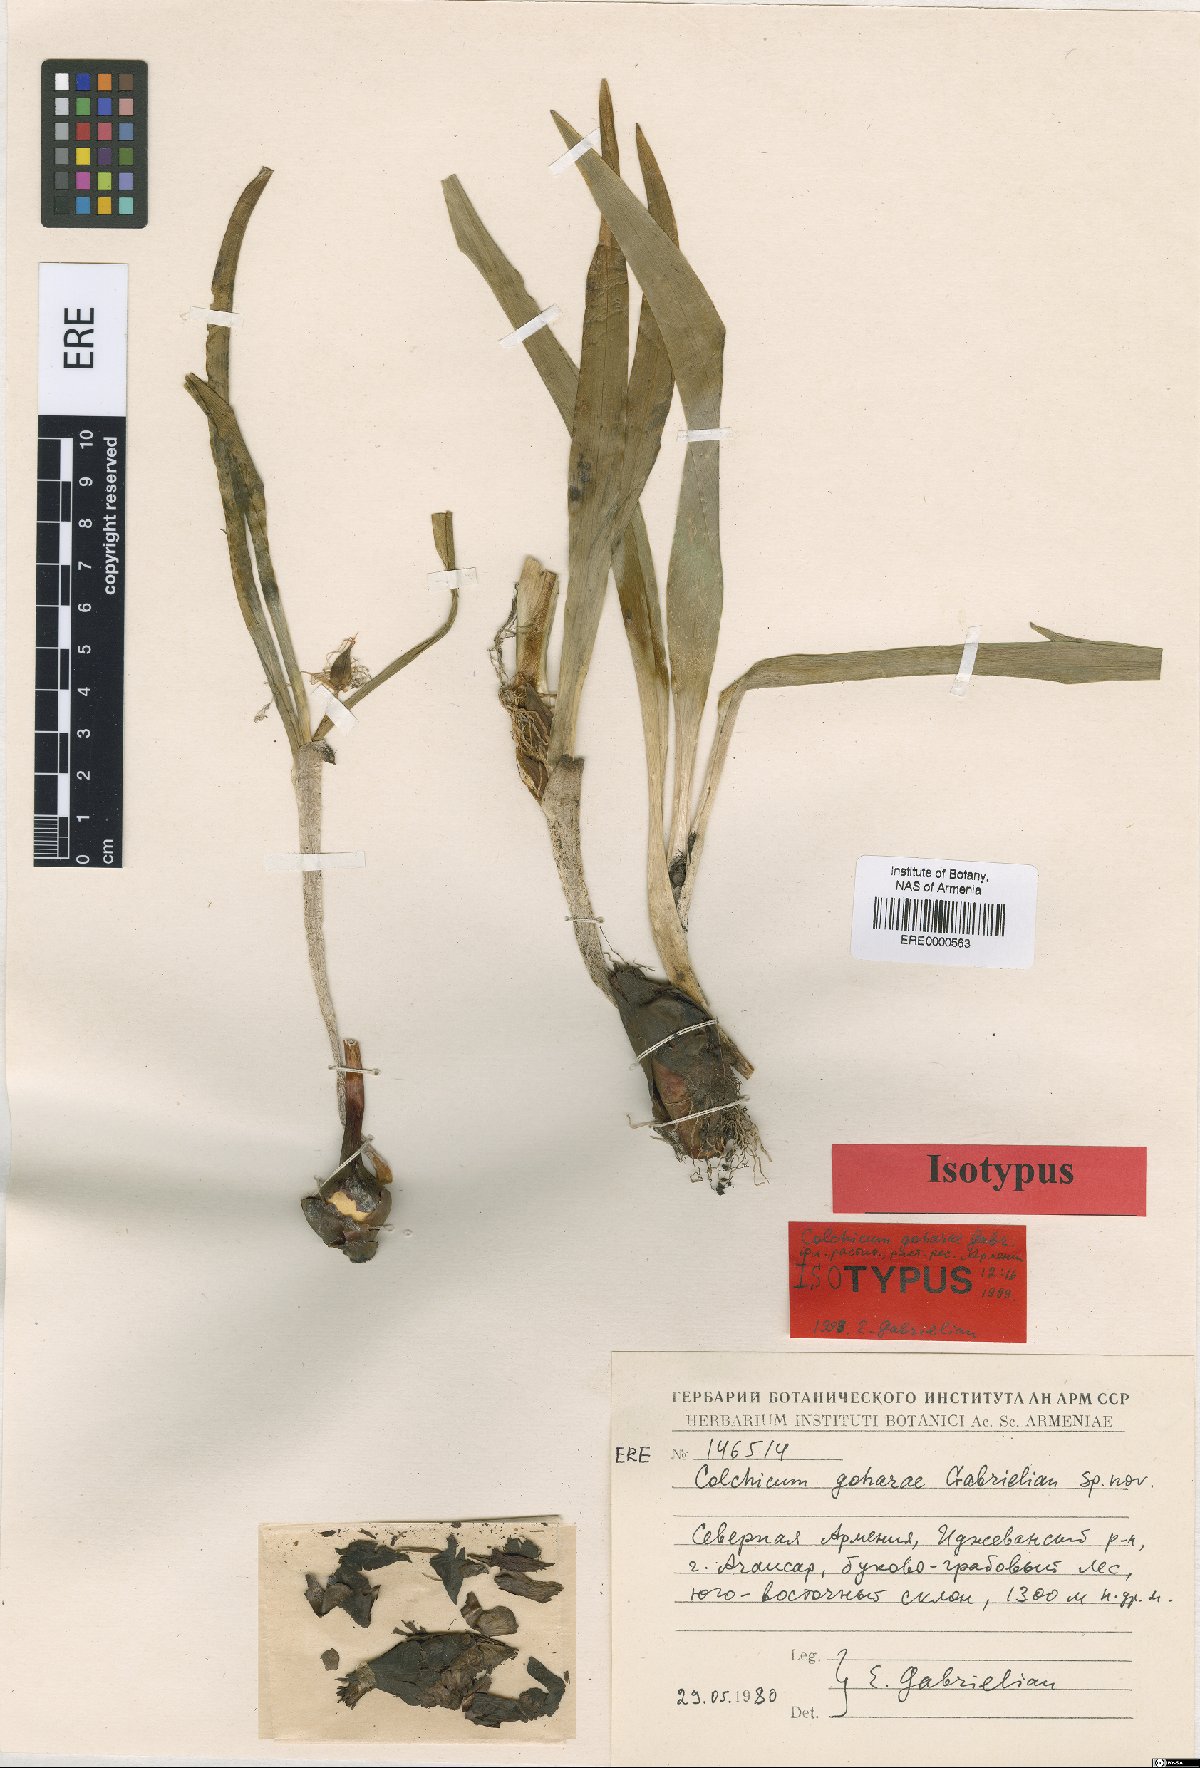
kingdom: Plantae
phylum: Tracheophyta
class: Liliopsida
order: Liliales
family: Colchicaceae
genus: Colchicum
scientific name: Colchicum szovitsii
